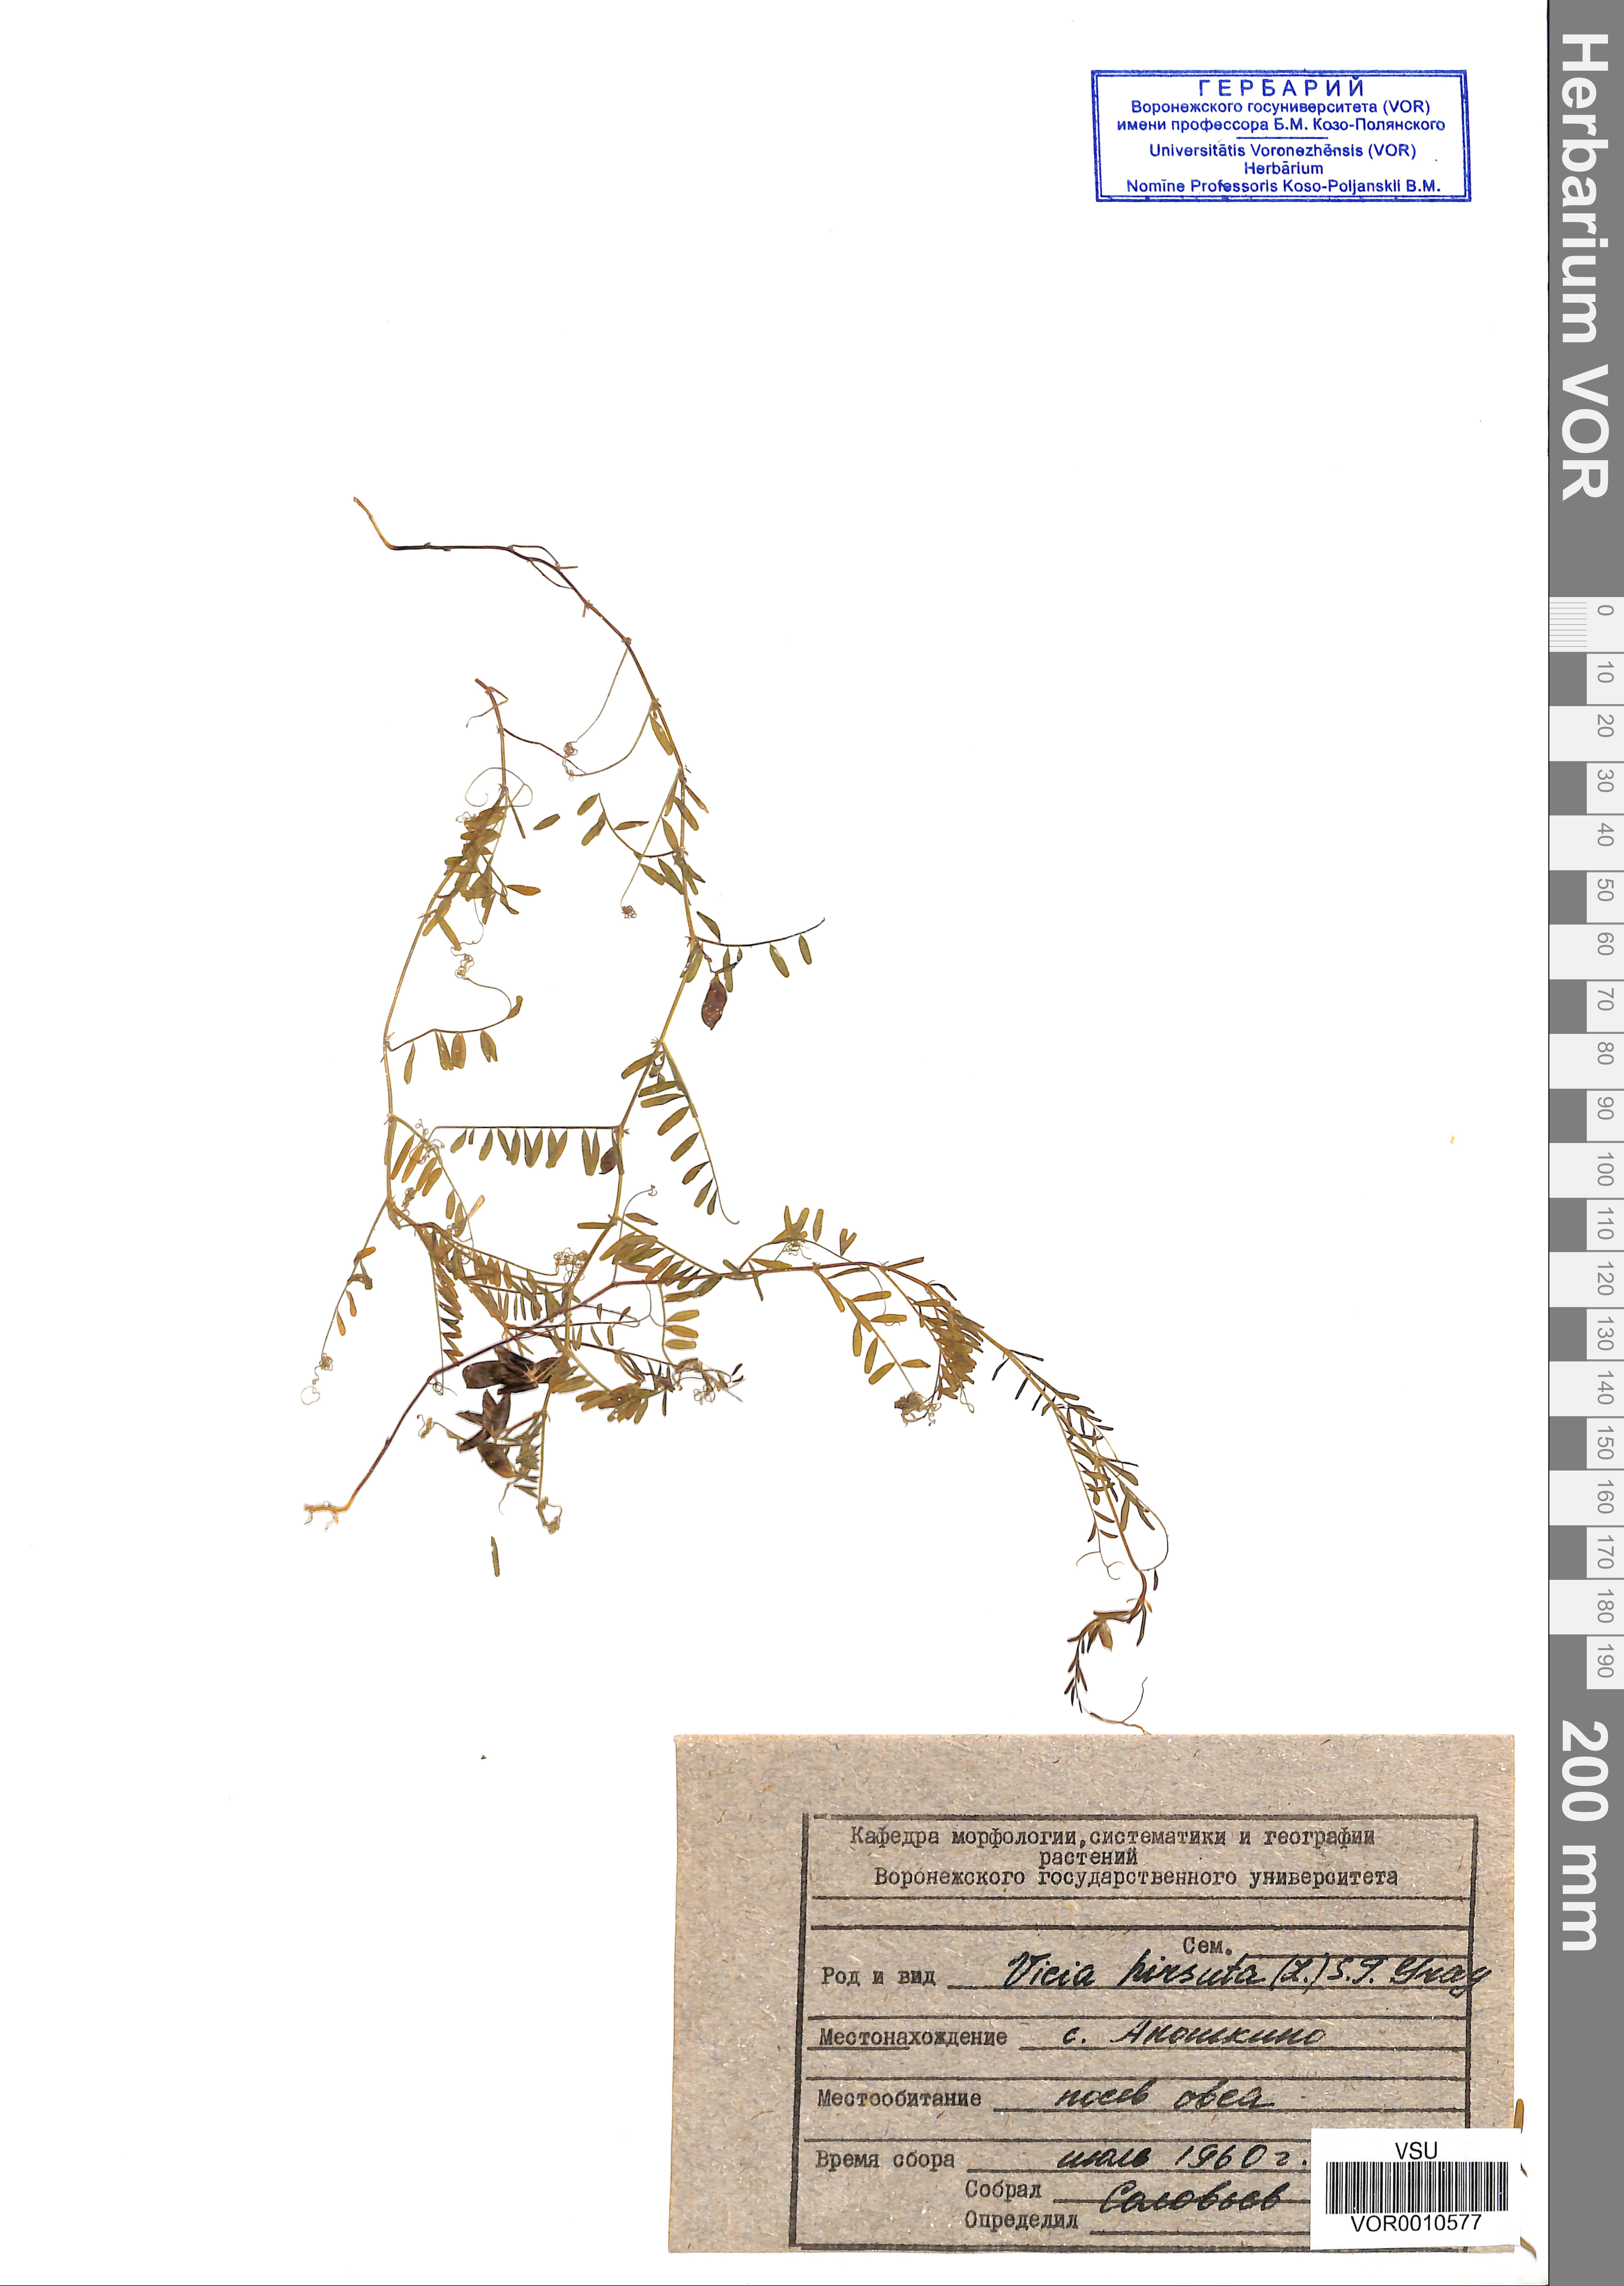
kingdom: Plantae
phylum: Tracheophyta
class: Magnoliopsida
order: Fabales
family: Fabaceae
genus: Vicia
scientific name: Vicia hirsuta
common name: Tiny vetch
